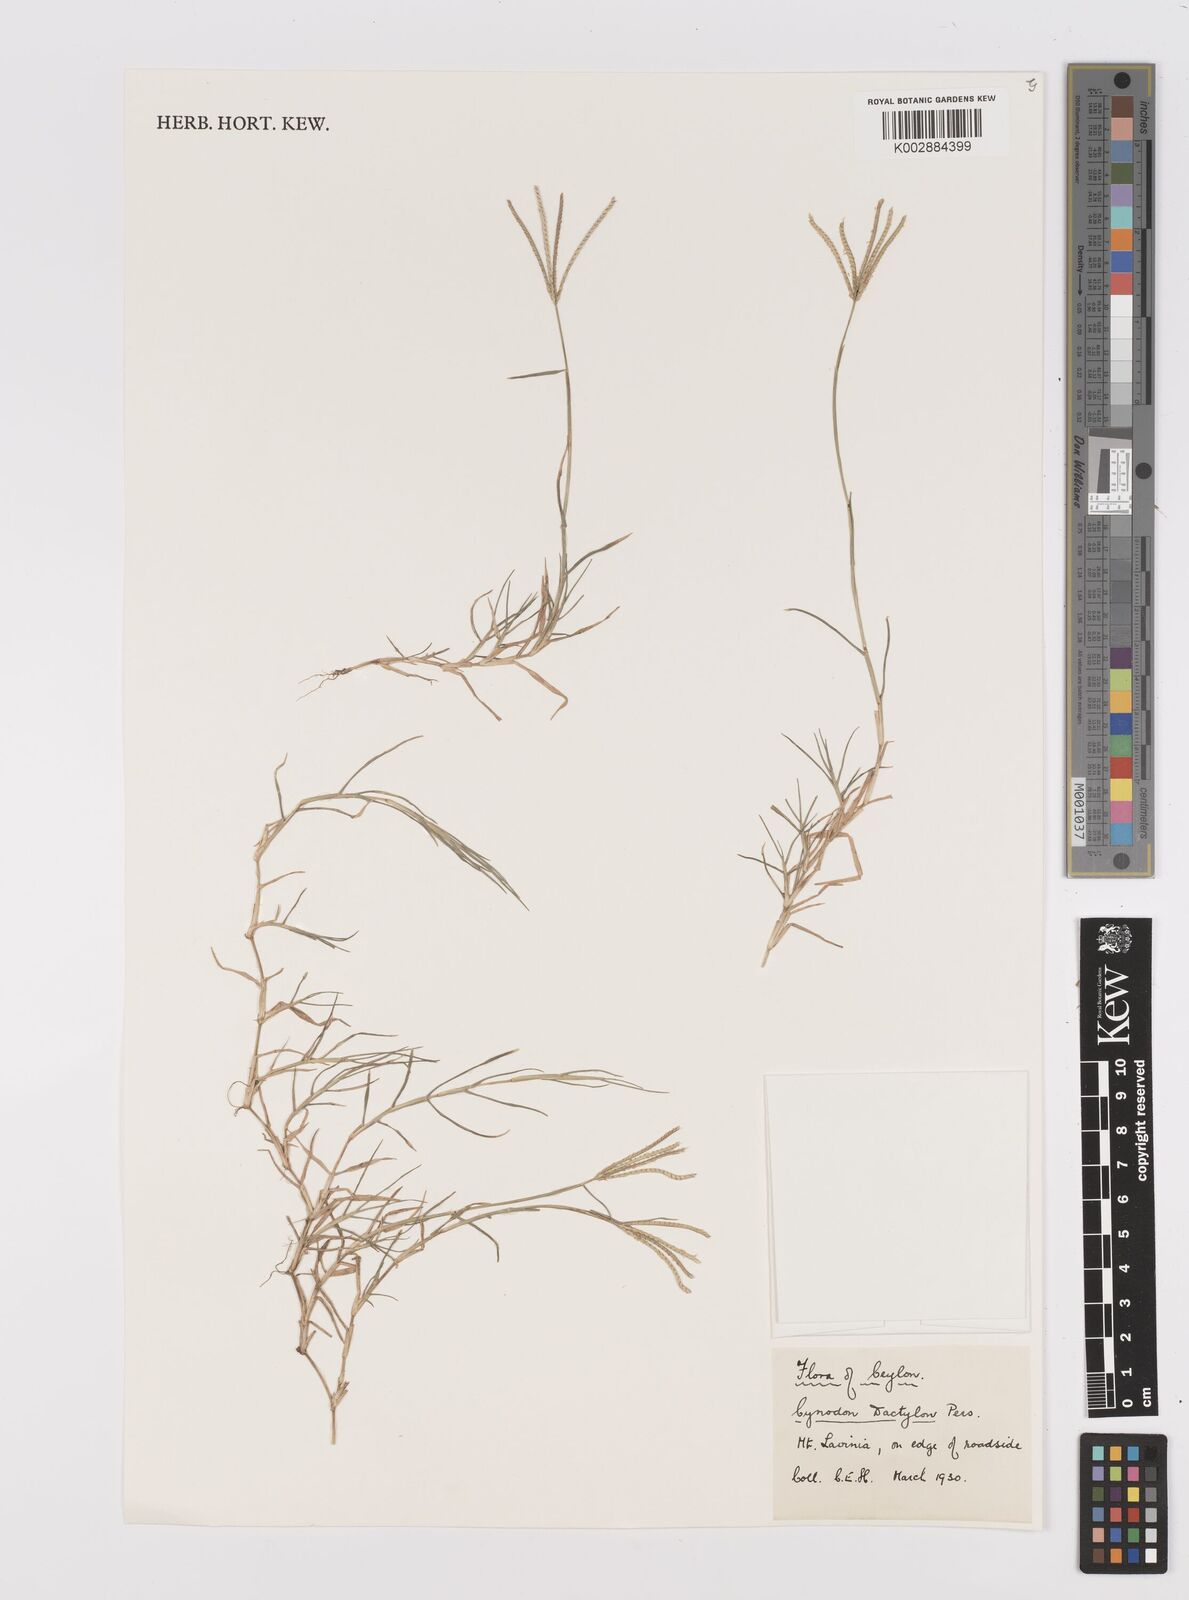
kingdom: Plantae
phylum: Tracheophyta
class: Liliopsida
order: Poales
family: Poaceae
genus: Cynodon
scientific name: Cynodon dactylon
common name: Bermuda grass
